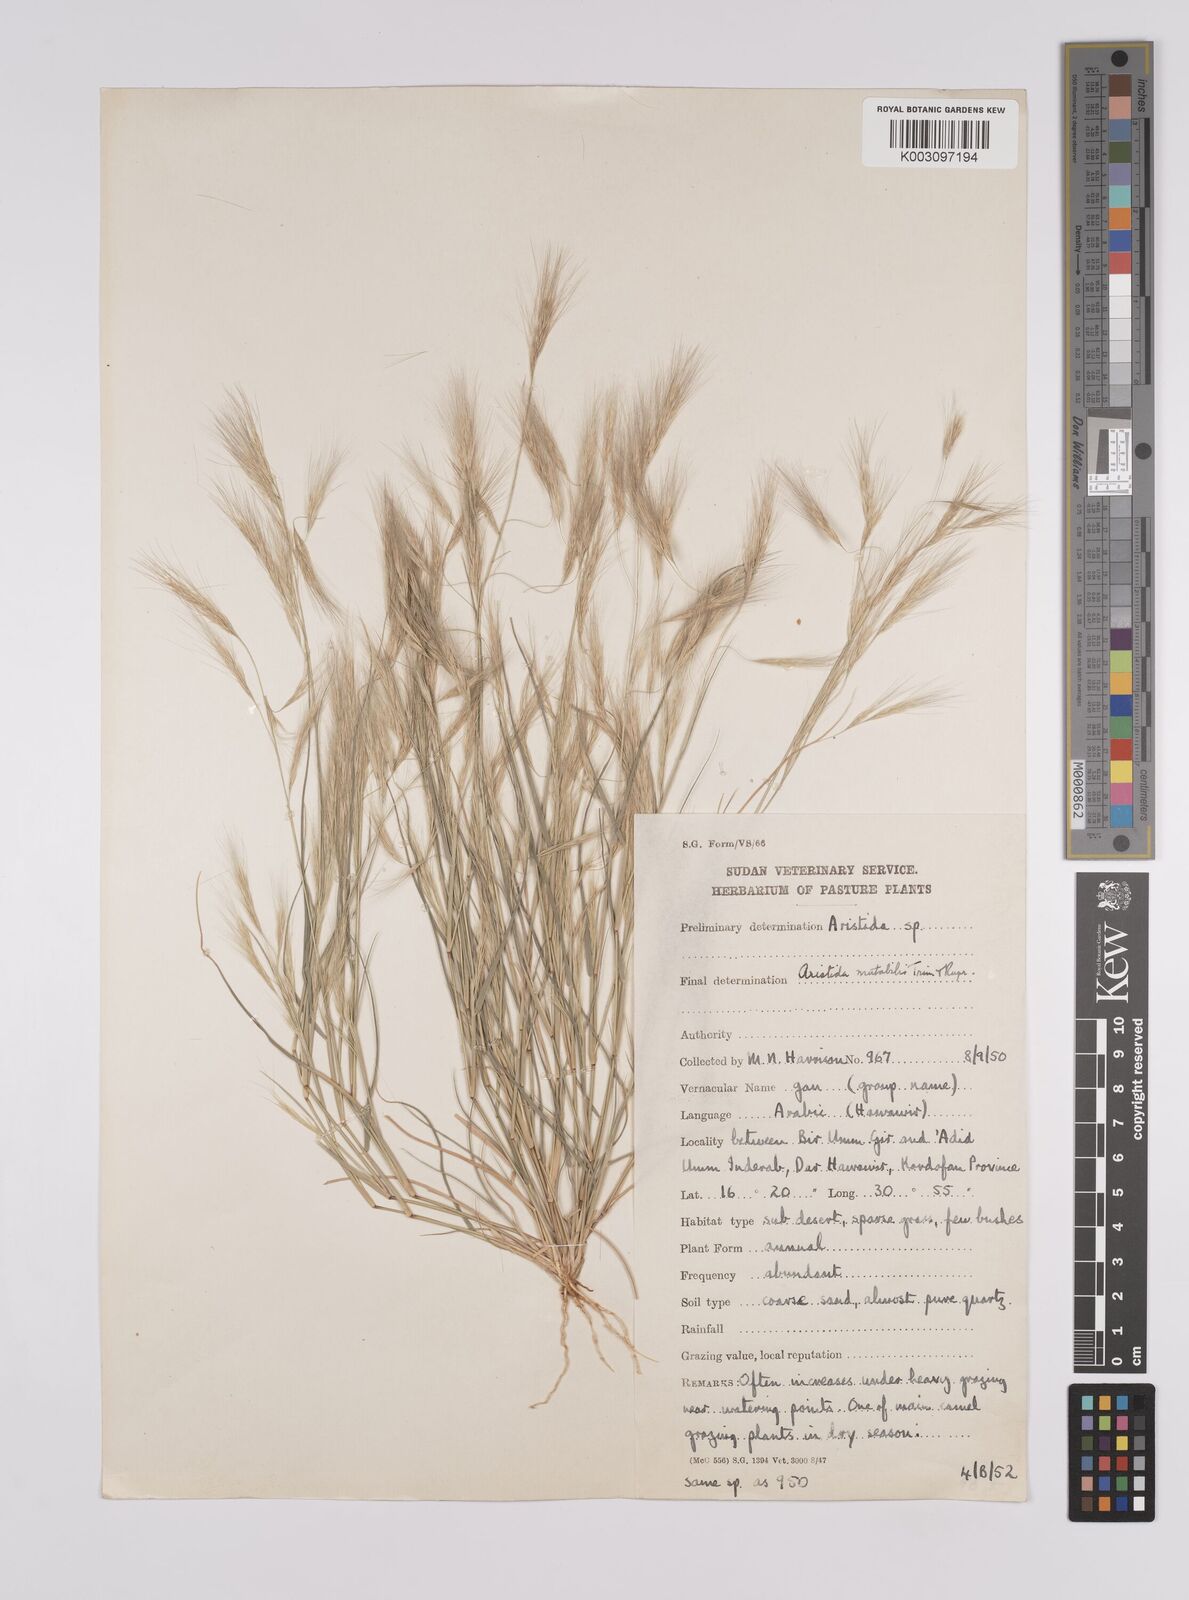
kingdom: Plantae
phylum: Tracheophyta
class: Liliopsida
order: Poales
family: Poaceae
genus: Aristida
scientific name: Aristida mutabilis
